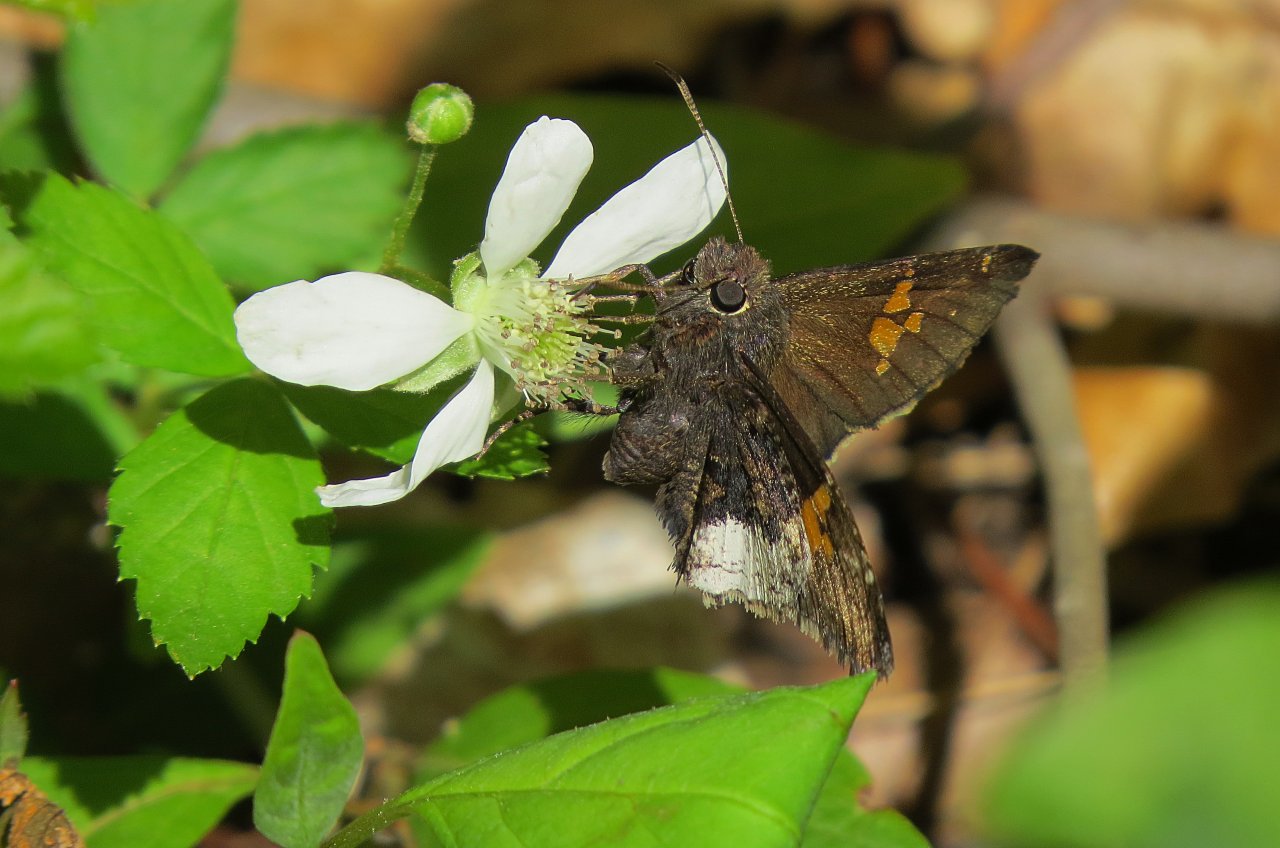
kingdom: Animalia
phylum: Arthropoda
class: Insecta
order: Lepidoptera
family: Hesperiidae
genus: Achalarus
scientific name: Achalarus lyciades
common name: Hoary Edge
